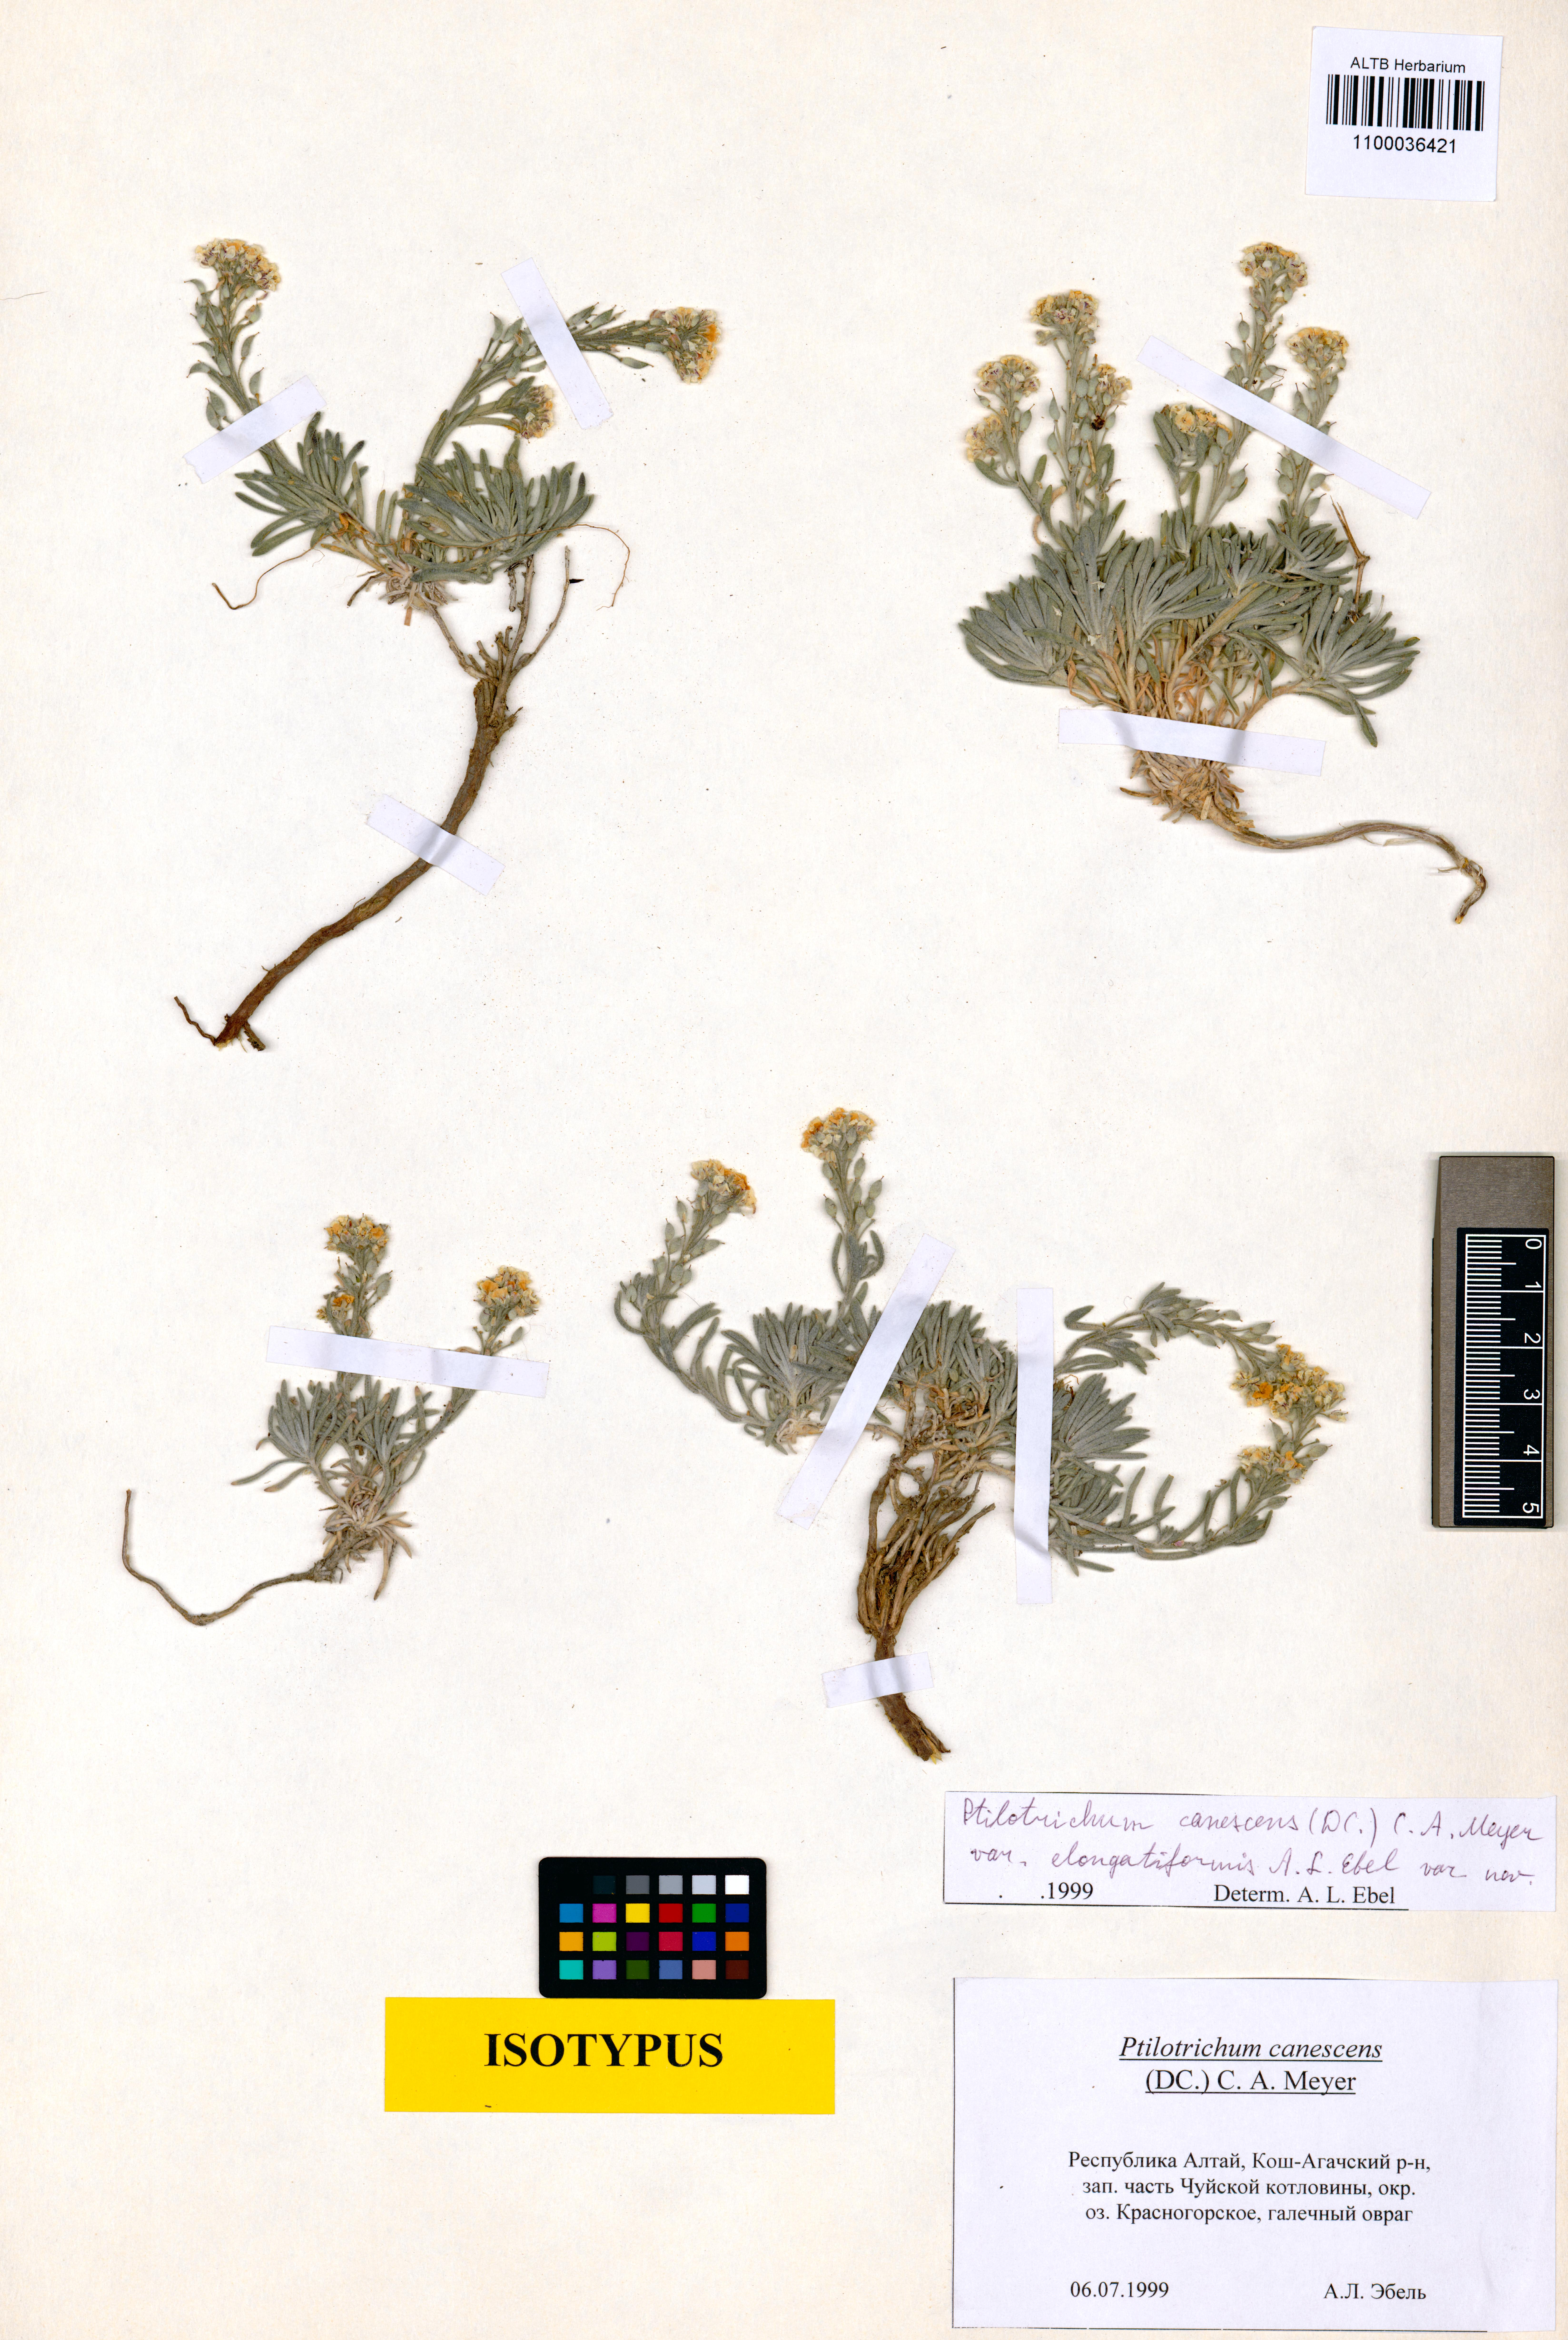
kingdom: Plantae
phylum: Tracheophyta
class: Magnoliopsida
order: Brassicales
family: Brassicaceae
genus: Stevenia
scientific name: Stevenia canescens
